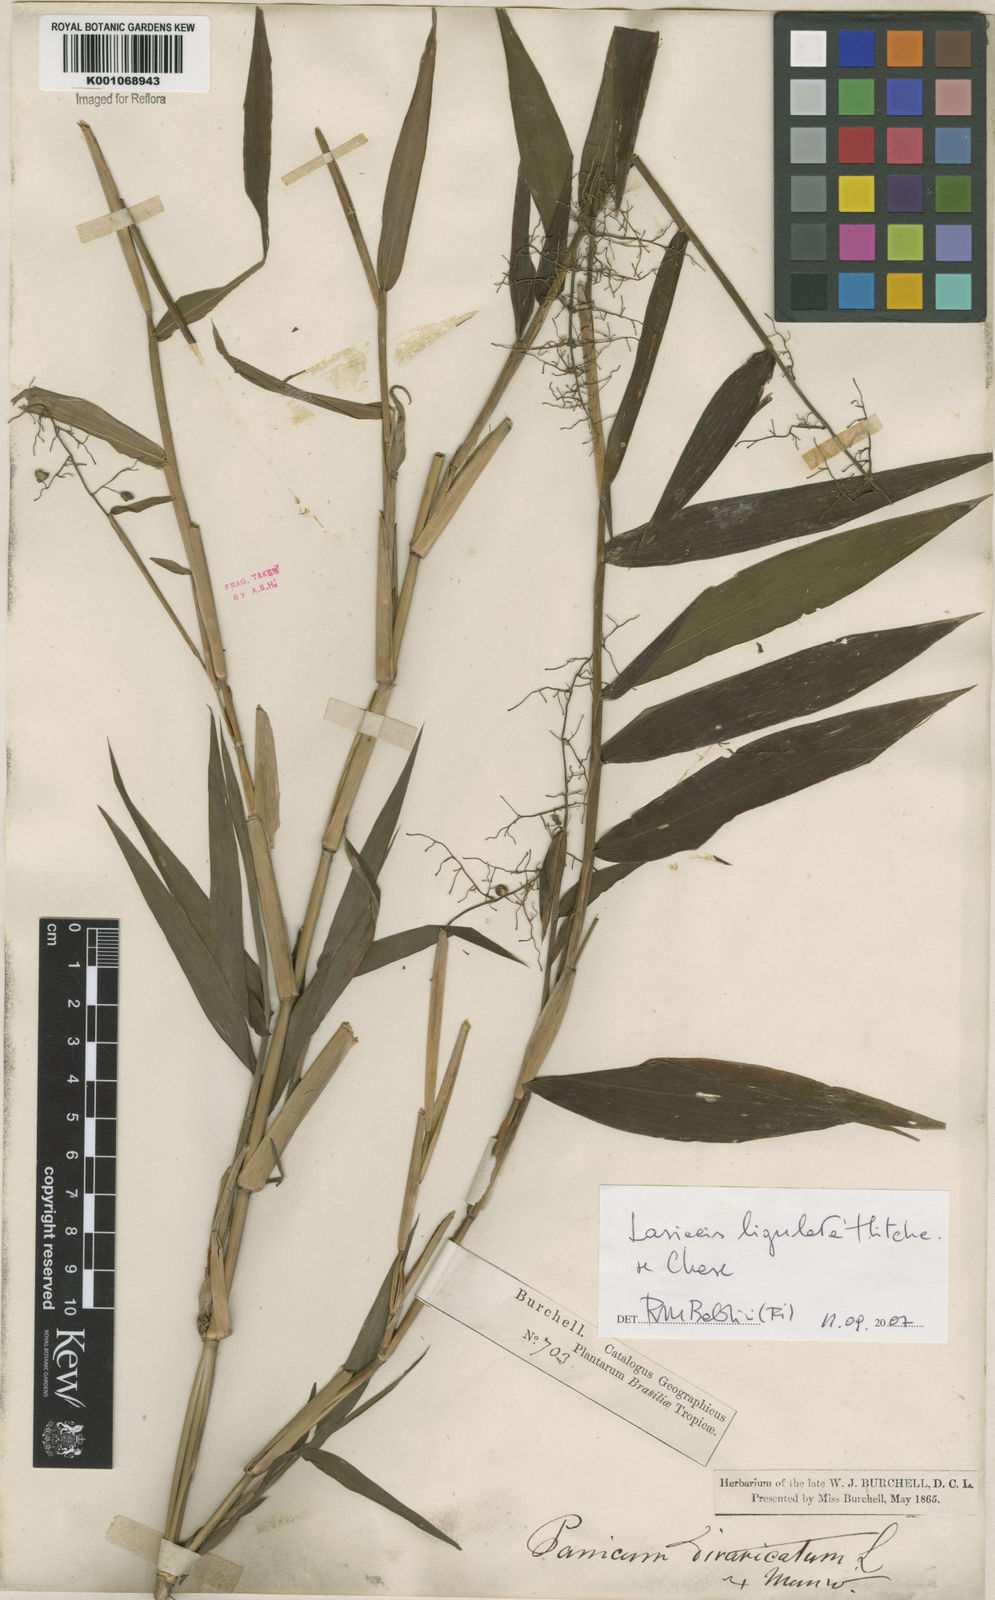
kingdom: Plantae
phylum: Tracheophyta
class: Liliopsida
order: Poales
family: Poaceae
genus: Lasiacis
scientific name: Lasiacis ligulata
